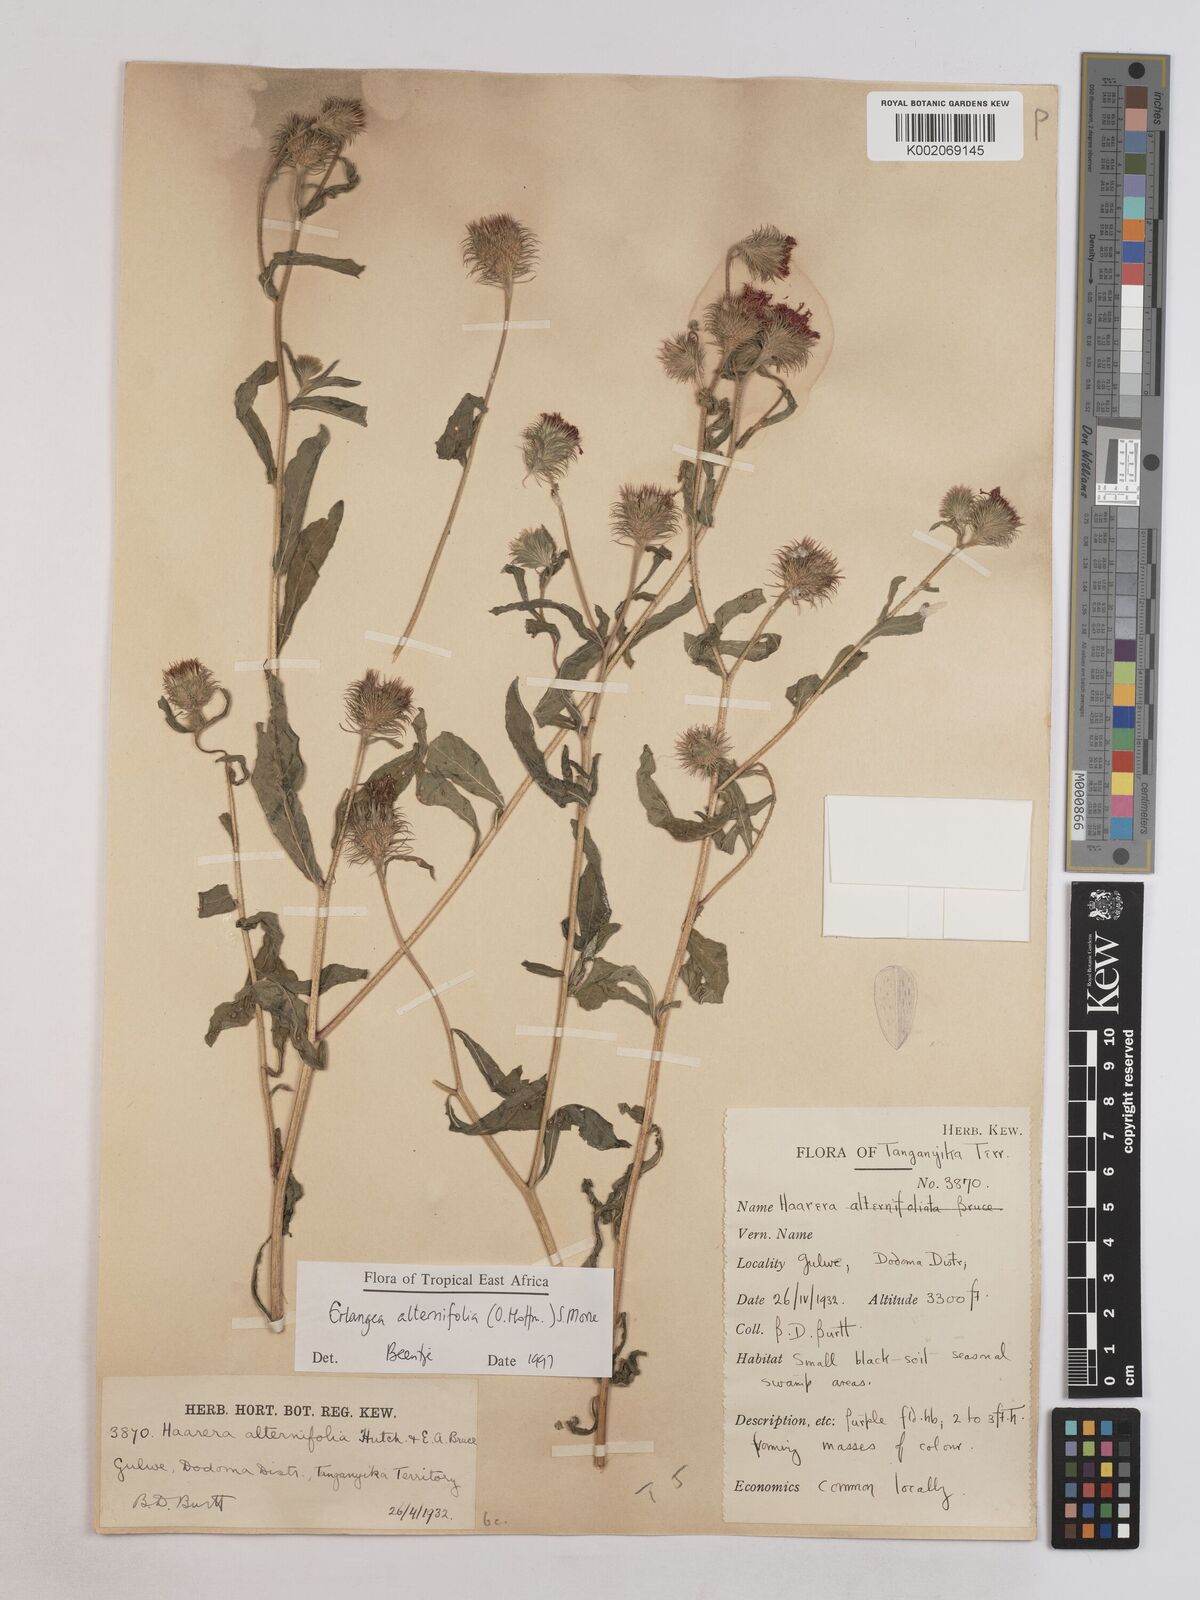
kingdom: Plantae
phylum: Tracheophyta
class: Magnoliopsida
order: Asterales
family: Asteraceae
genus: Erlangea
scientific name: Erlangea alternifolia
